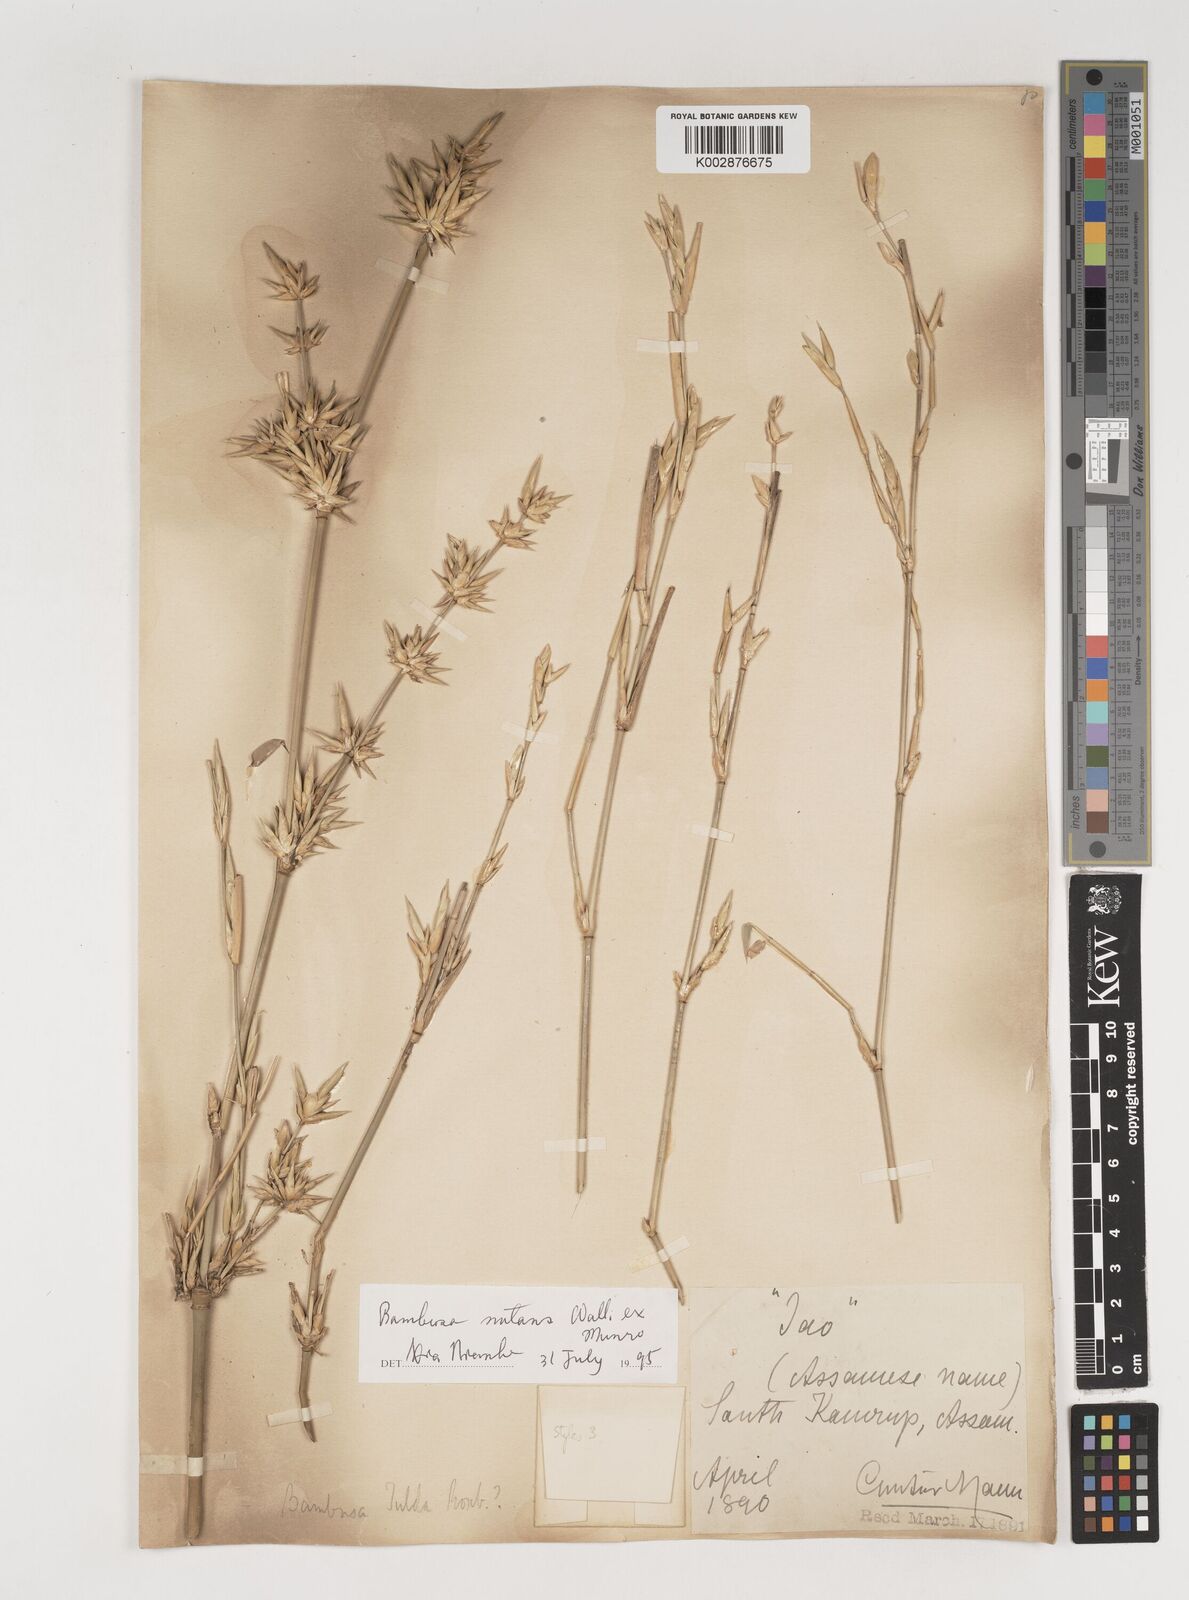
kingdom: Plantae
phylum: Tracheophyta
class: Liliopsida
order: Poales
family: Poaceae
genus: Bambusa
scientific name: Bambusa nutans
